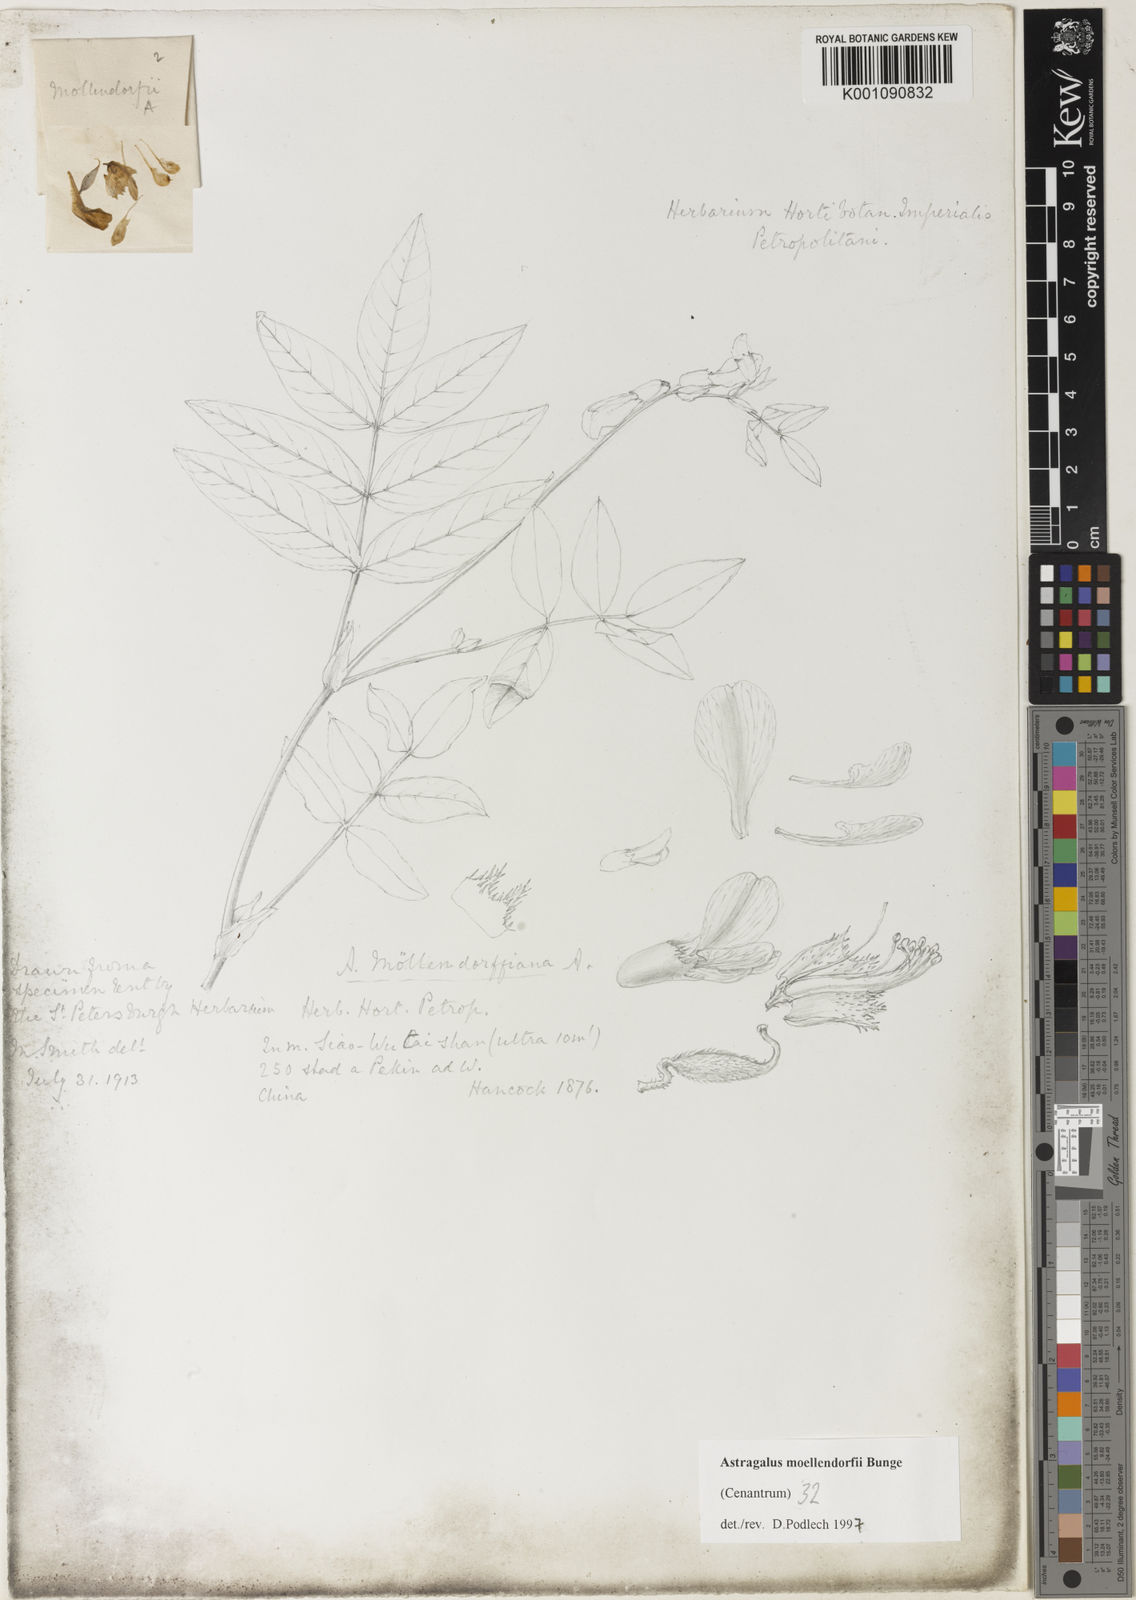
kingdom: Plantae
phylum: Tracheophyta
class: Magnoliopsida
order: Fabales
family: Fabaceae
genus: Astragalus
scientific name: Astragalus
